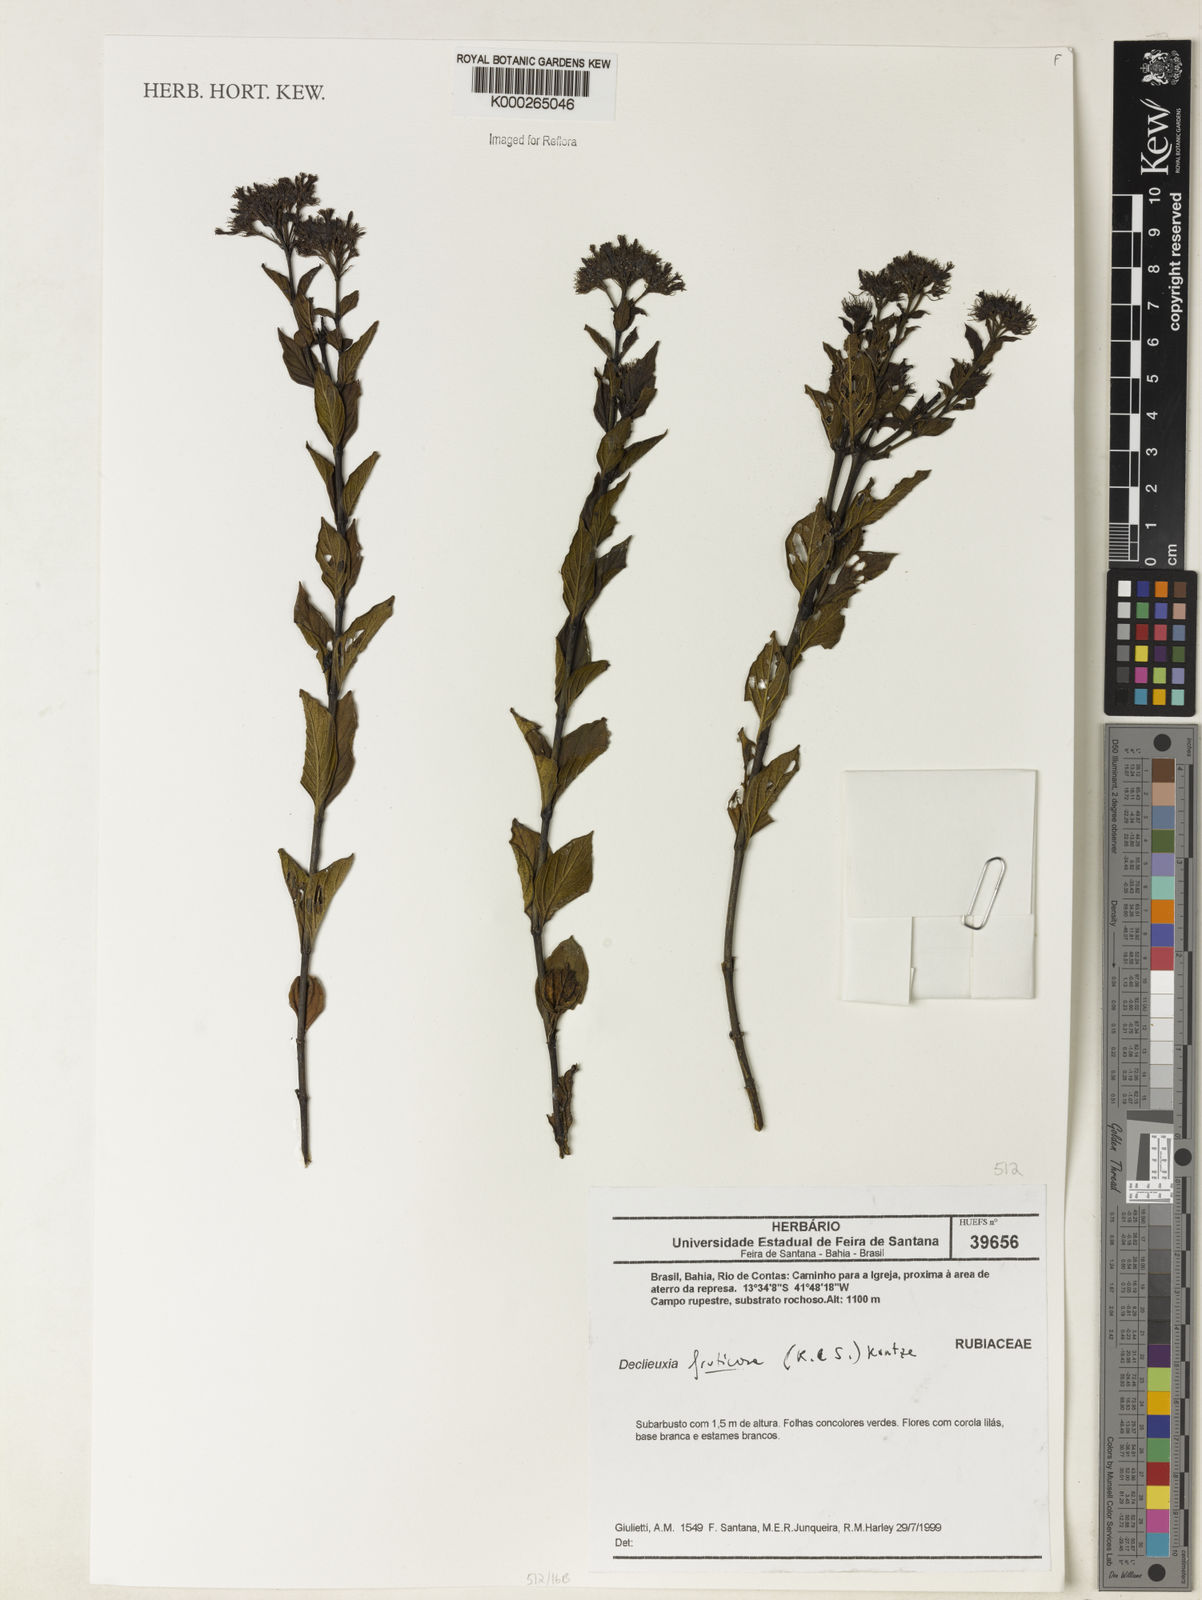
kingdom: Plantae
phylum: Tracheophyta
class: Magnoliopsida
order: Gentianales
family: Rubiaceae
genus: Declieuxia
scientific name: Declieuxia fruticosa
